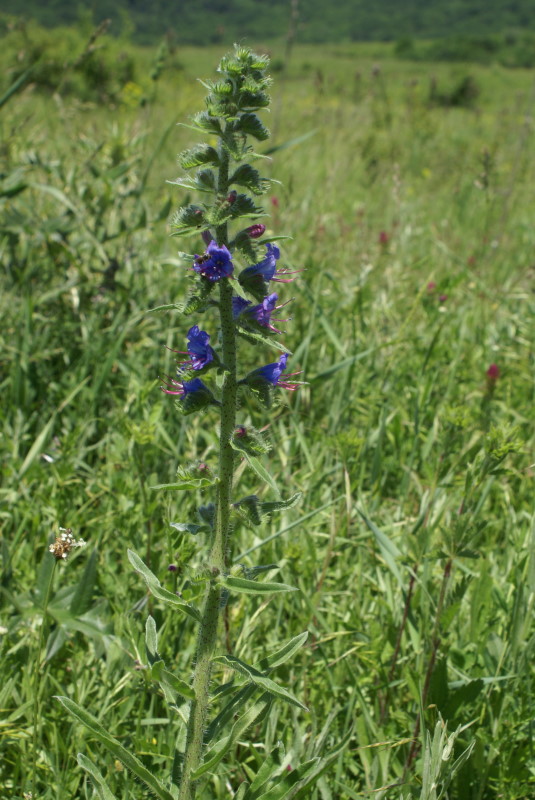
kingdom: Plantae
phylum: Tracheophyta
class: Magnoliopsida
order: Boraginales
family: Boraginaceae
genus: Echium
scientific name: Echium vulgare
